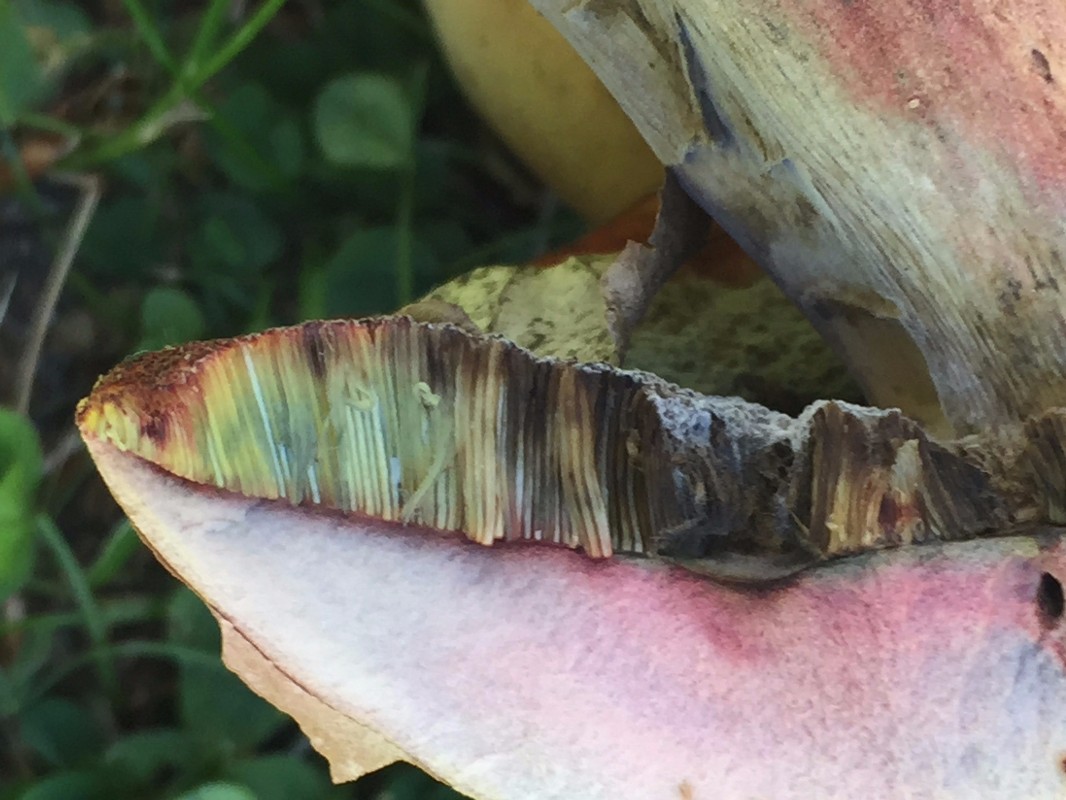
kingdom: Fungi
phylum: Basidiomycota
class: Agaricomycetes
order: Boletales
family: Boletaceae
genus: Neoboletus
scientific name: Neoboletus erythropus
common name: punktstokket indigorørhat
